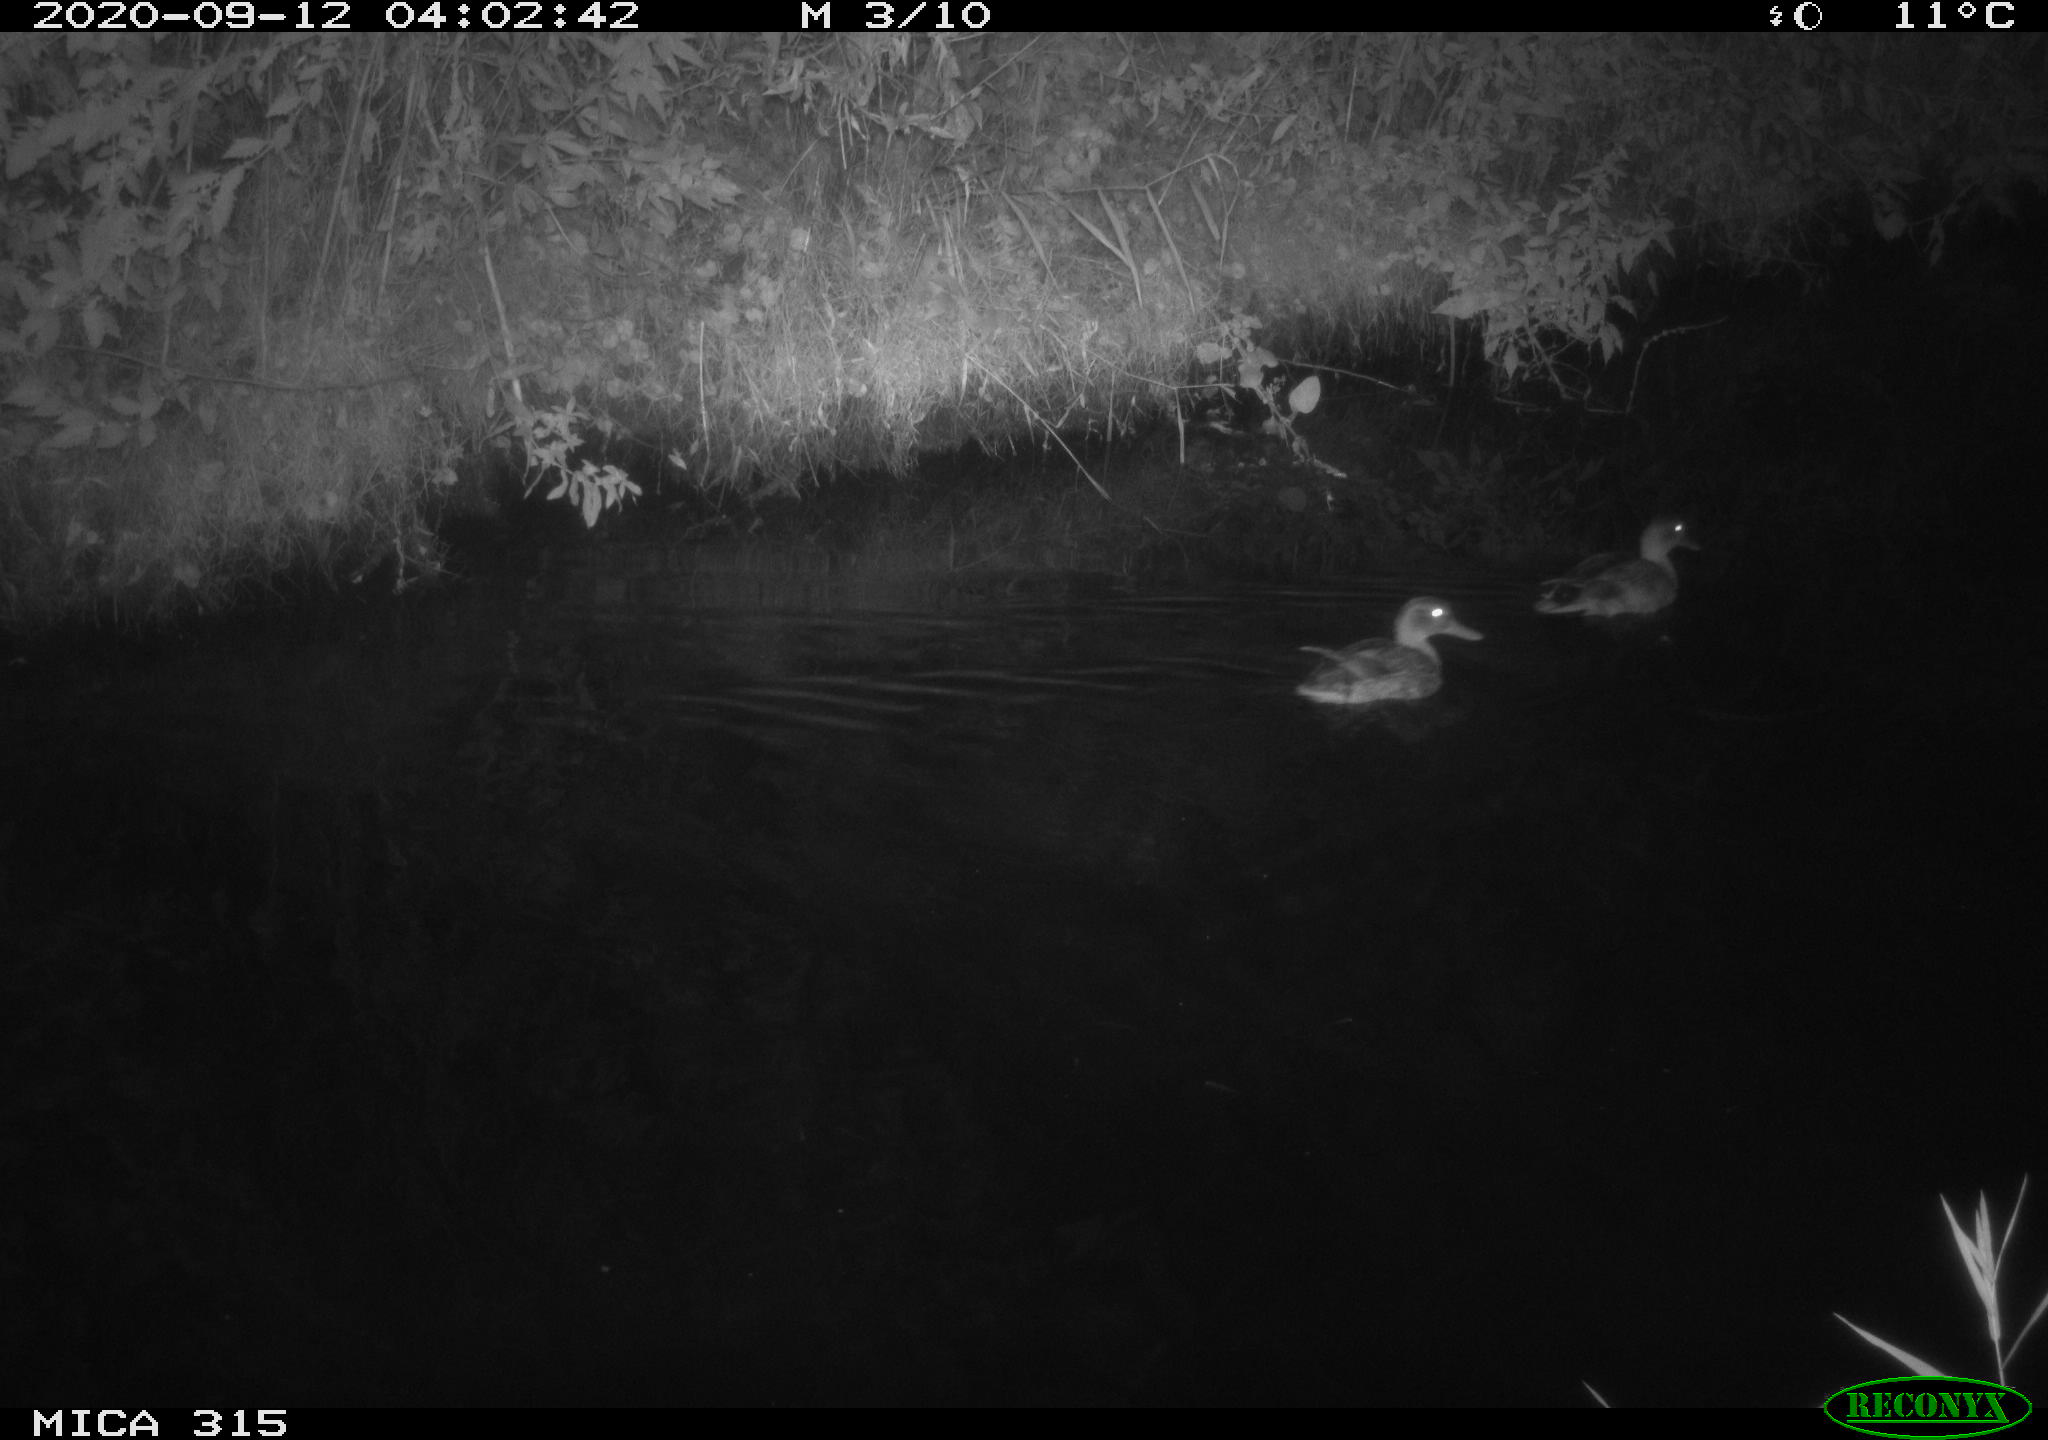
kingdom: Animalia
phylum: Chordata
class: Aves
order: Anseriformes
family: Anatidae
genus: Anas
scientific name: Anas platyrhynchos
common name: Mallard
